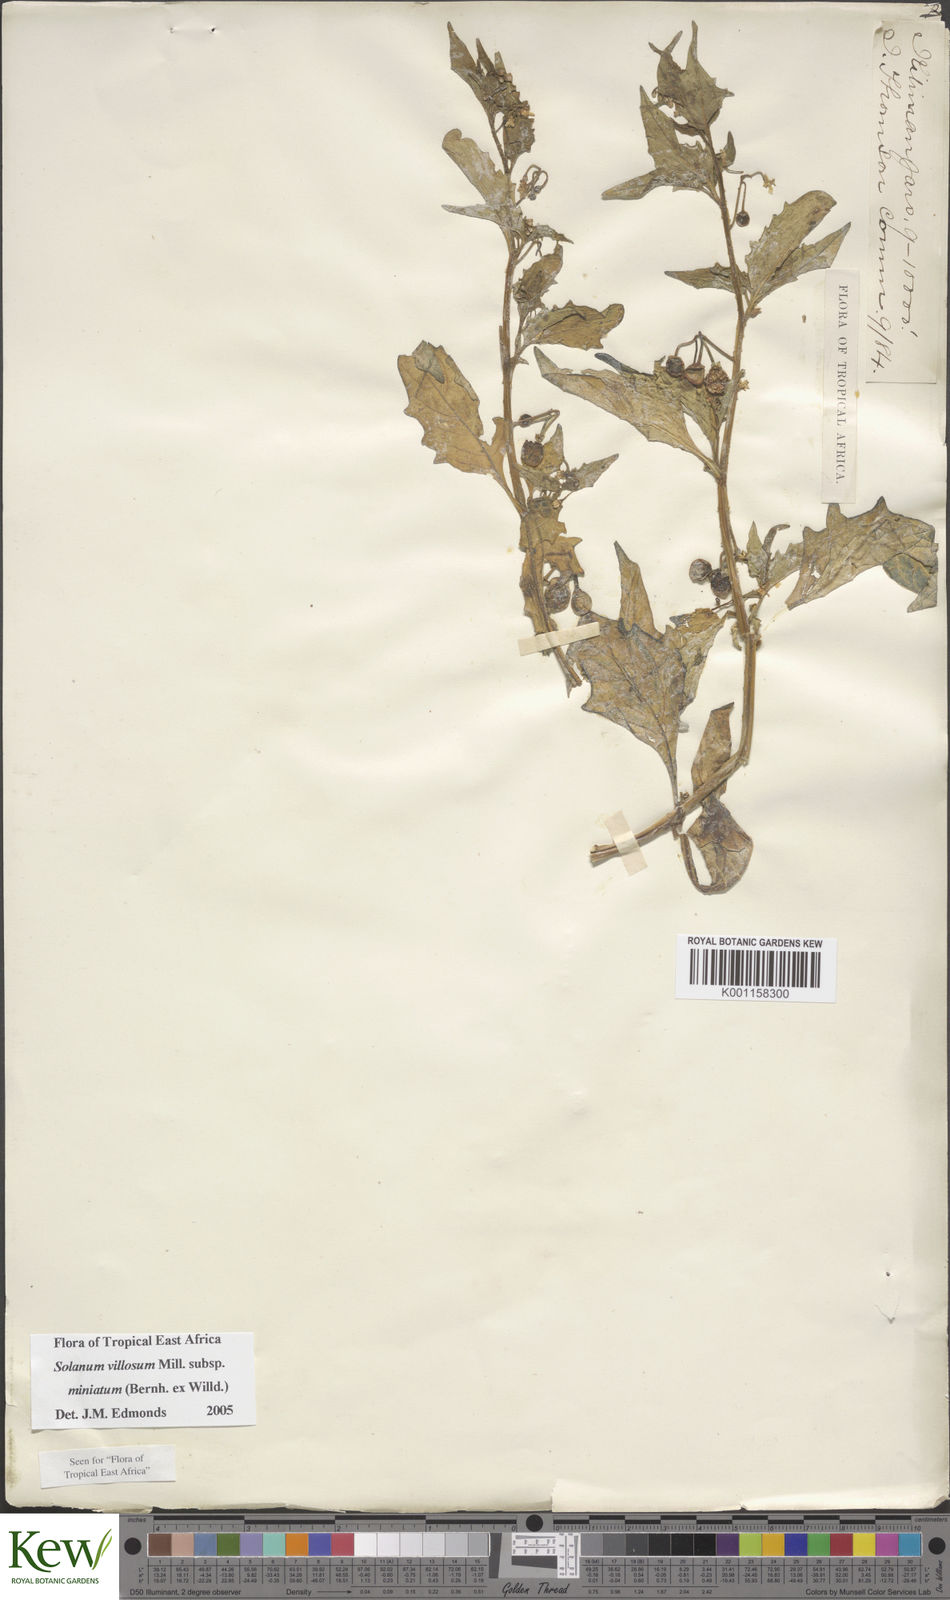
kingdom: Plantae
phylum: Tracheophyta
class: Magnoliopsida
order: Solanales
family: Solanaceae
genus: Solanum
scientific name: Solanum villosum
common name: Red nightshade
